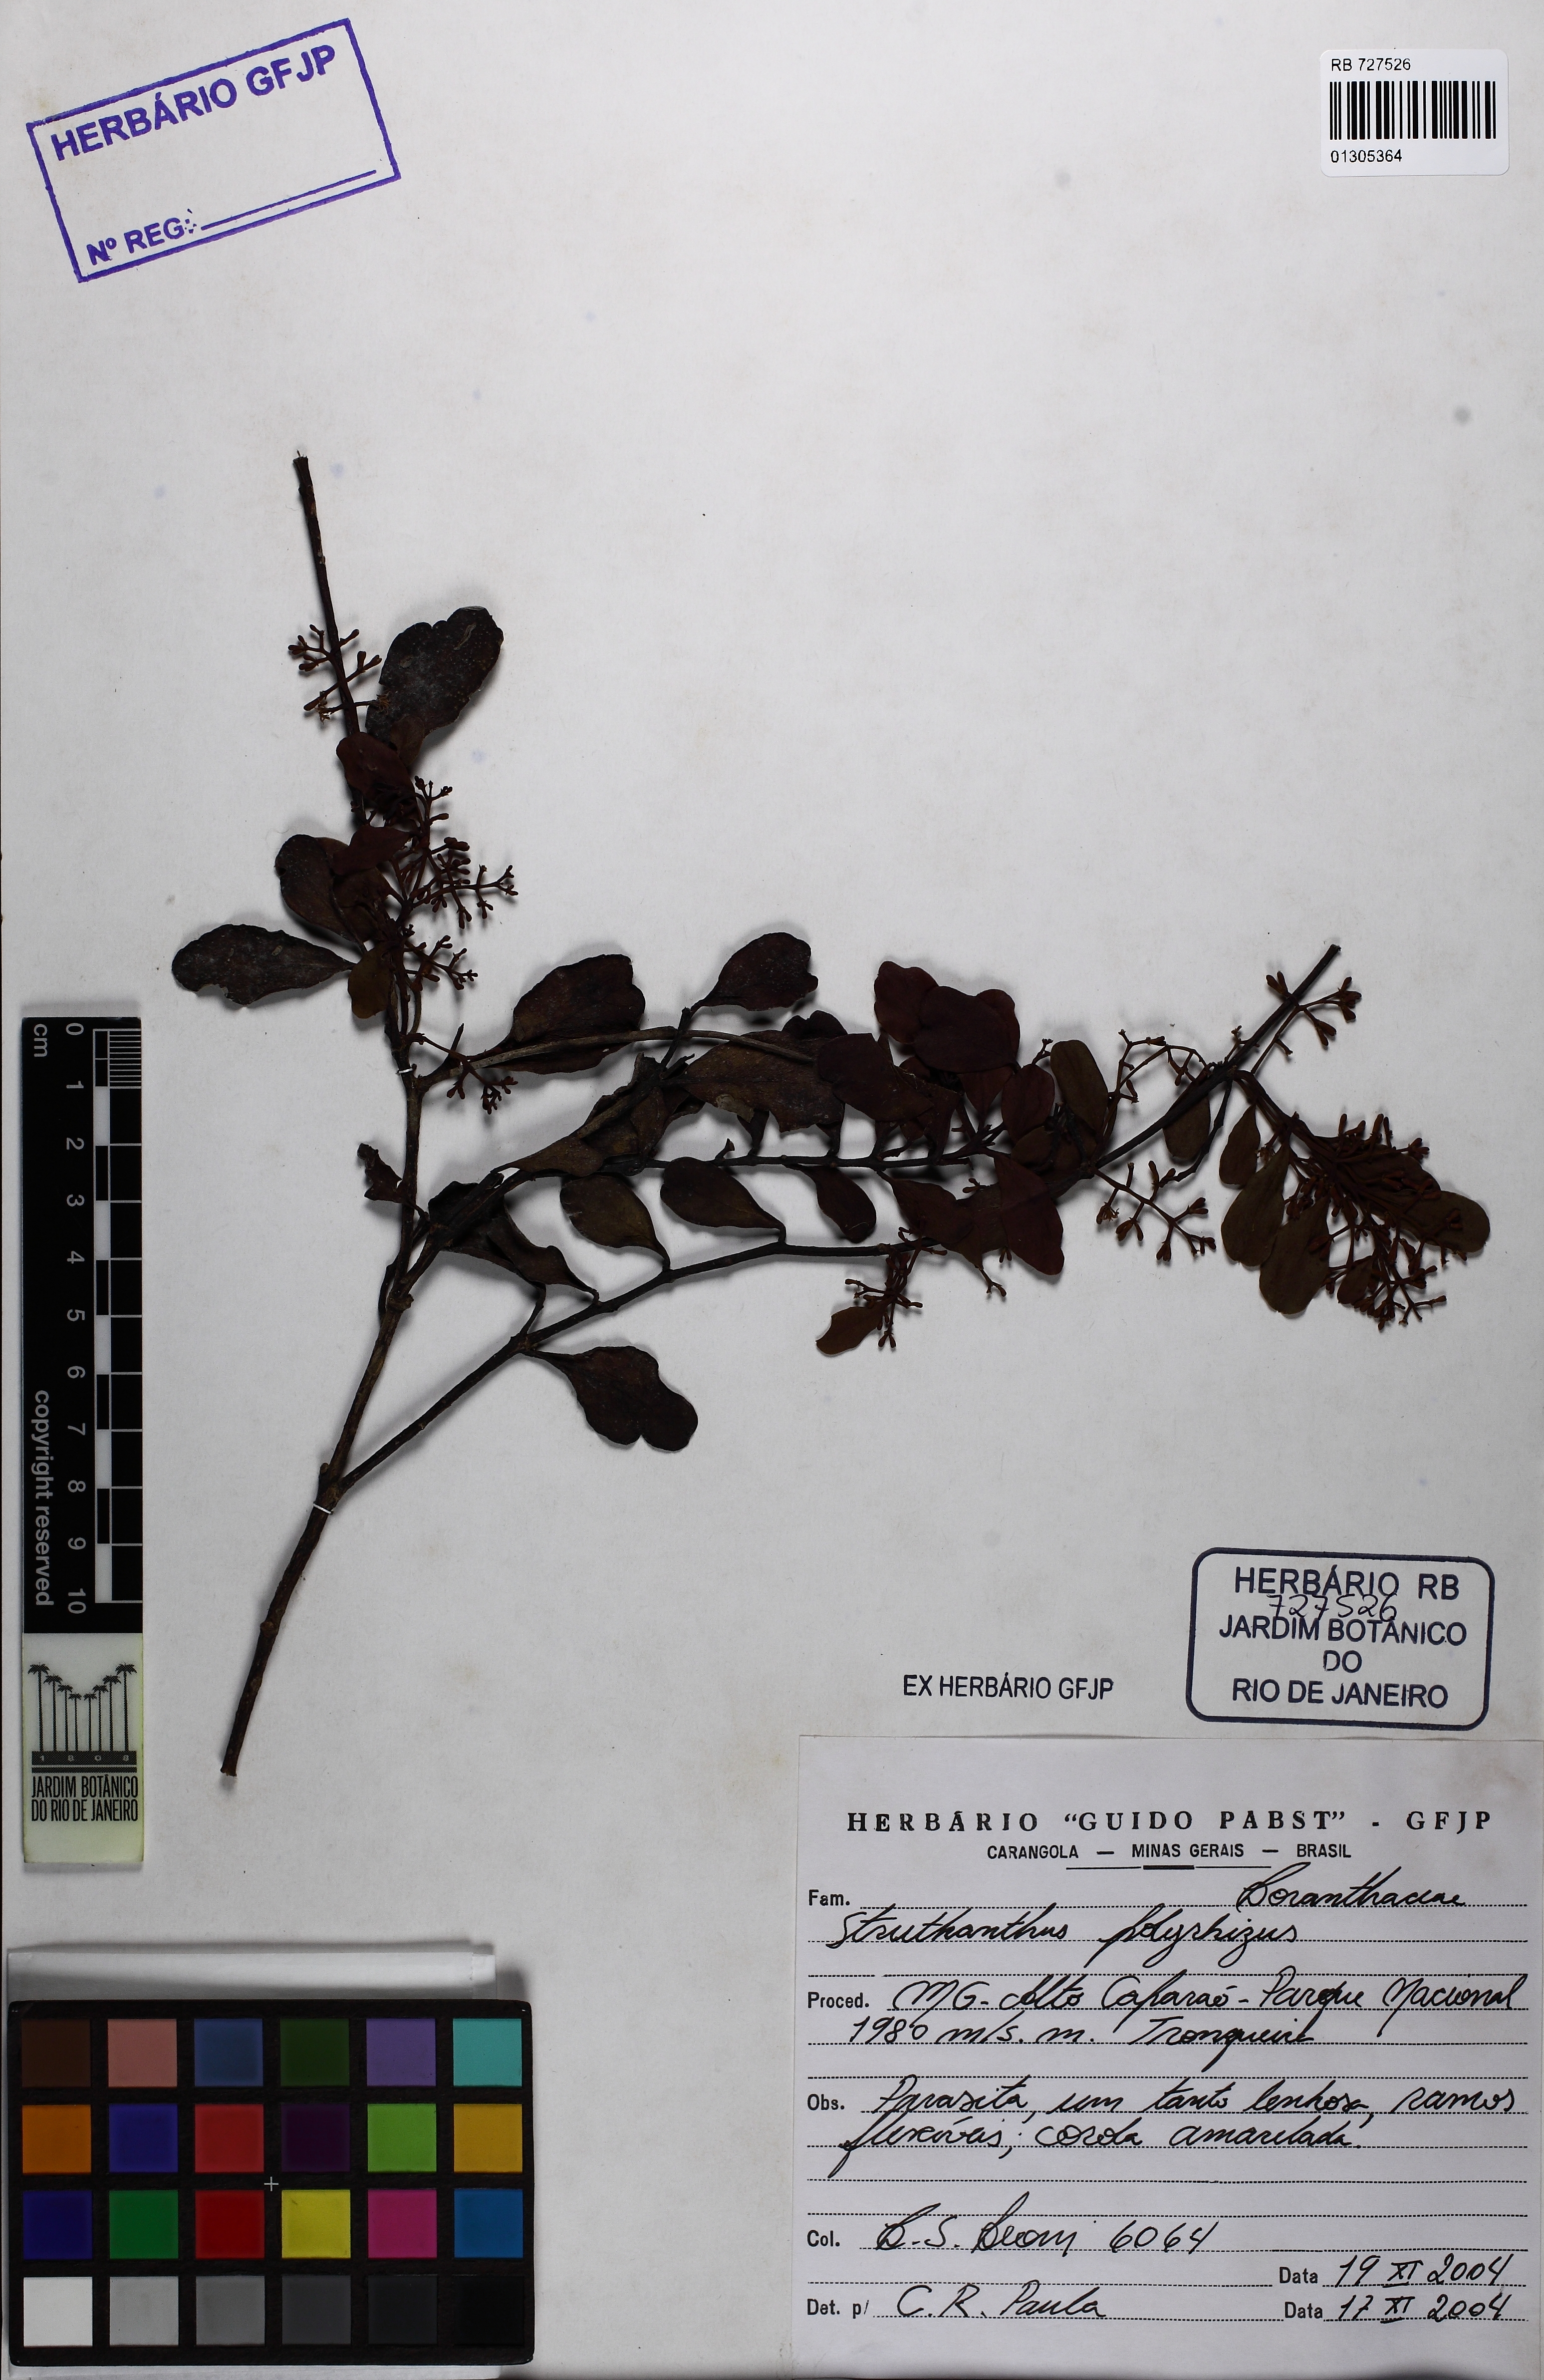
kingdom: Plantae
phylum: Tracheophyta
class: Magnoliopsida
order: Santalales
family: Loranthaceae
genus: Struthanthus
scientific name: Struthanthus retusus
